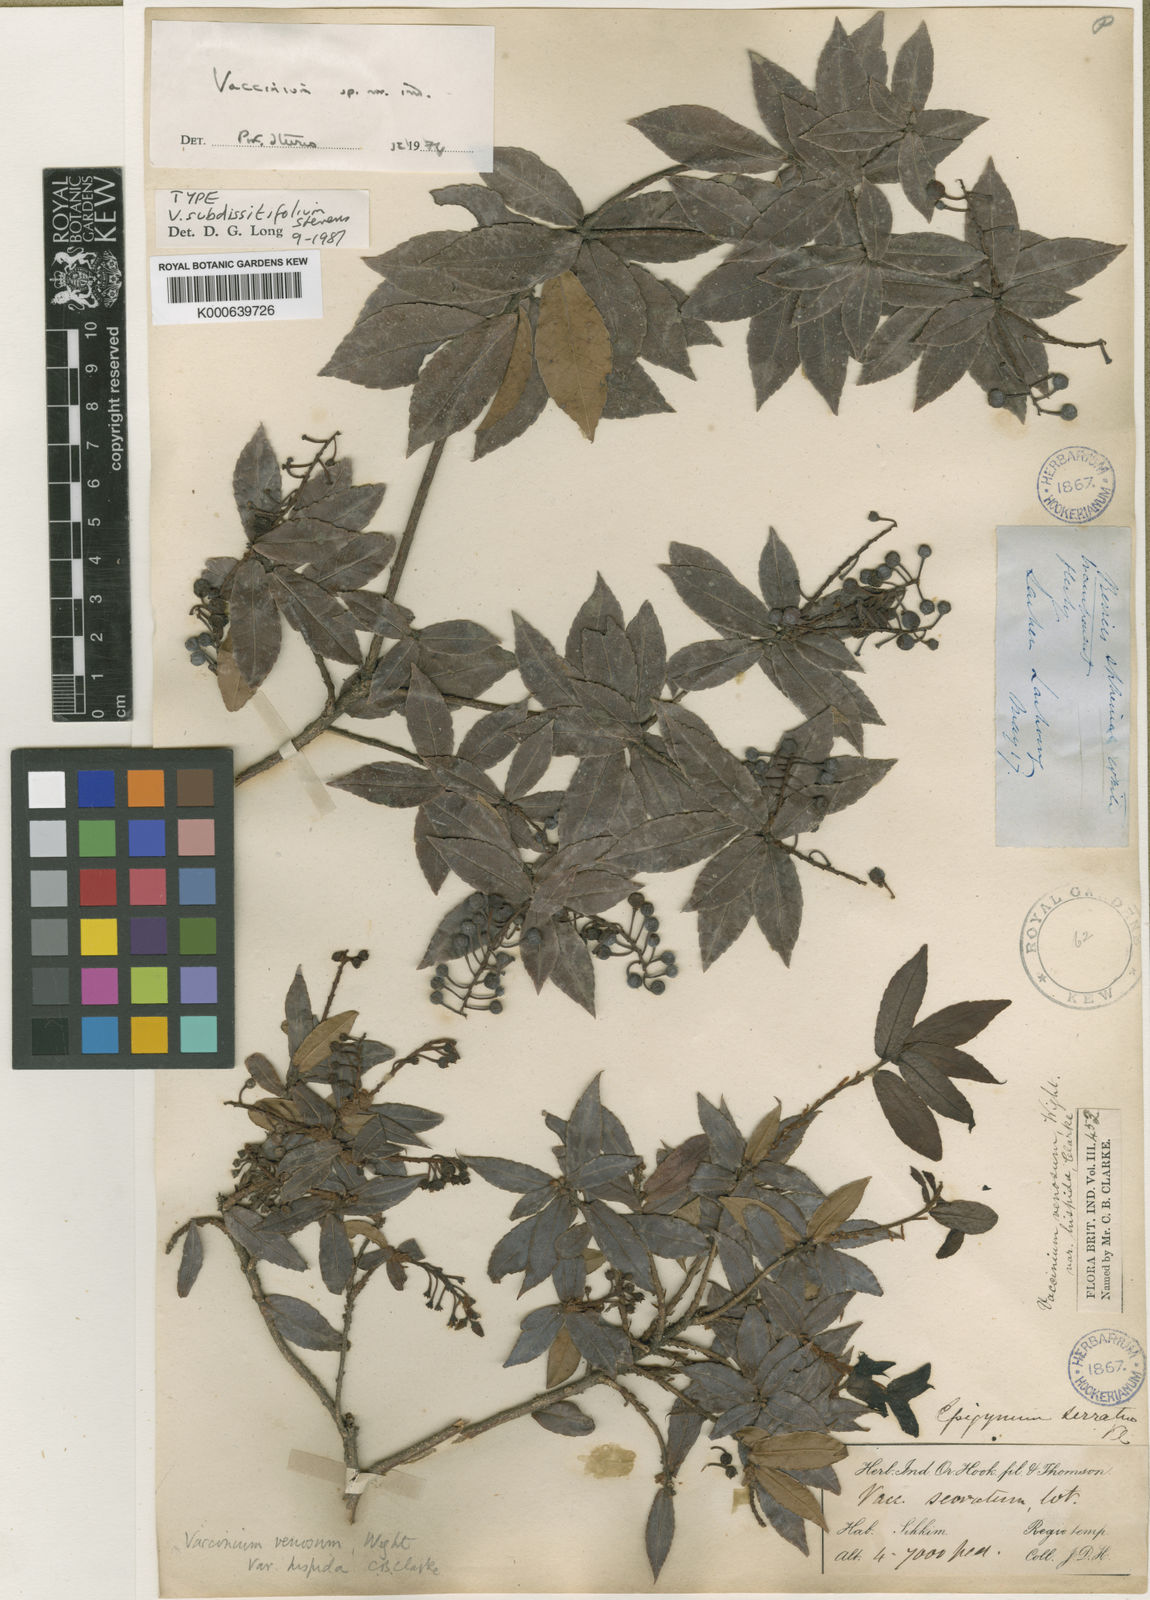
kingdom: Plantae
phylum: Tracheophyta
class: Magnoliopsida
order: Ericales
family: Ericaceae
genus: Vaccinium
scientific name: Vaccinium subdissitifolium
